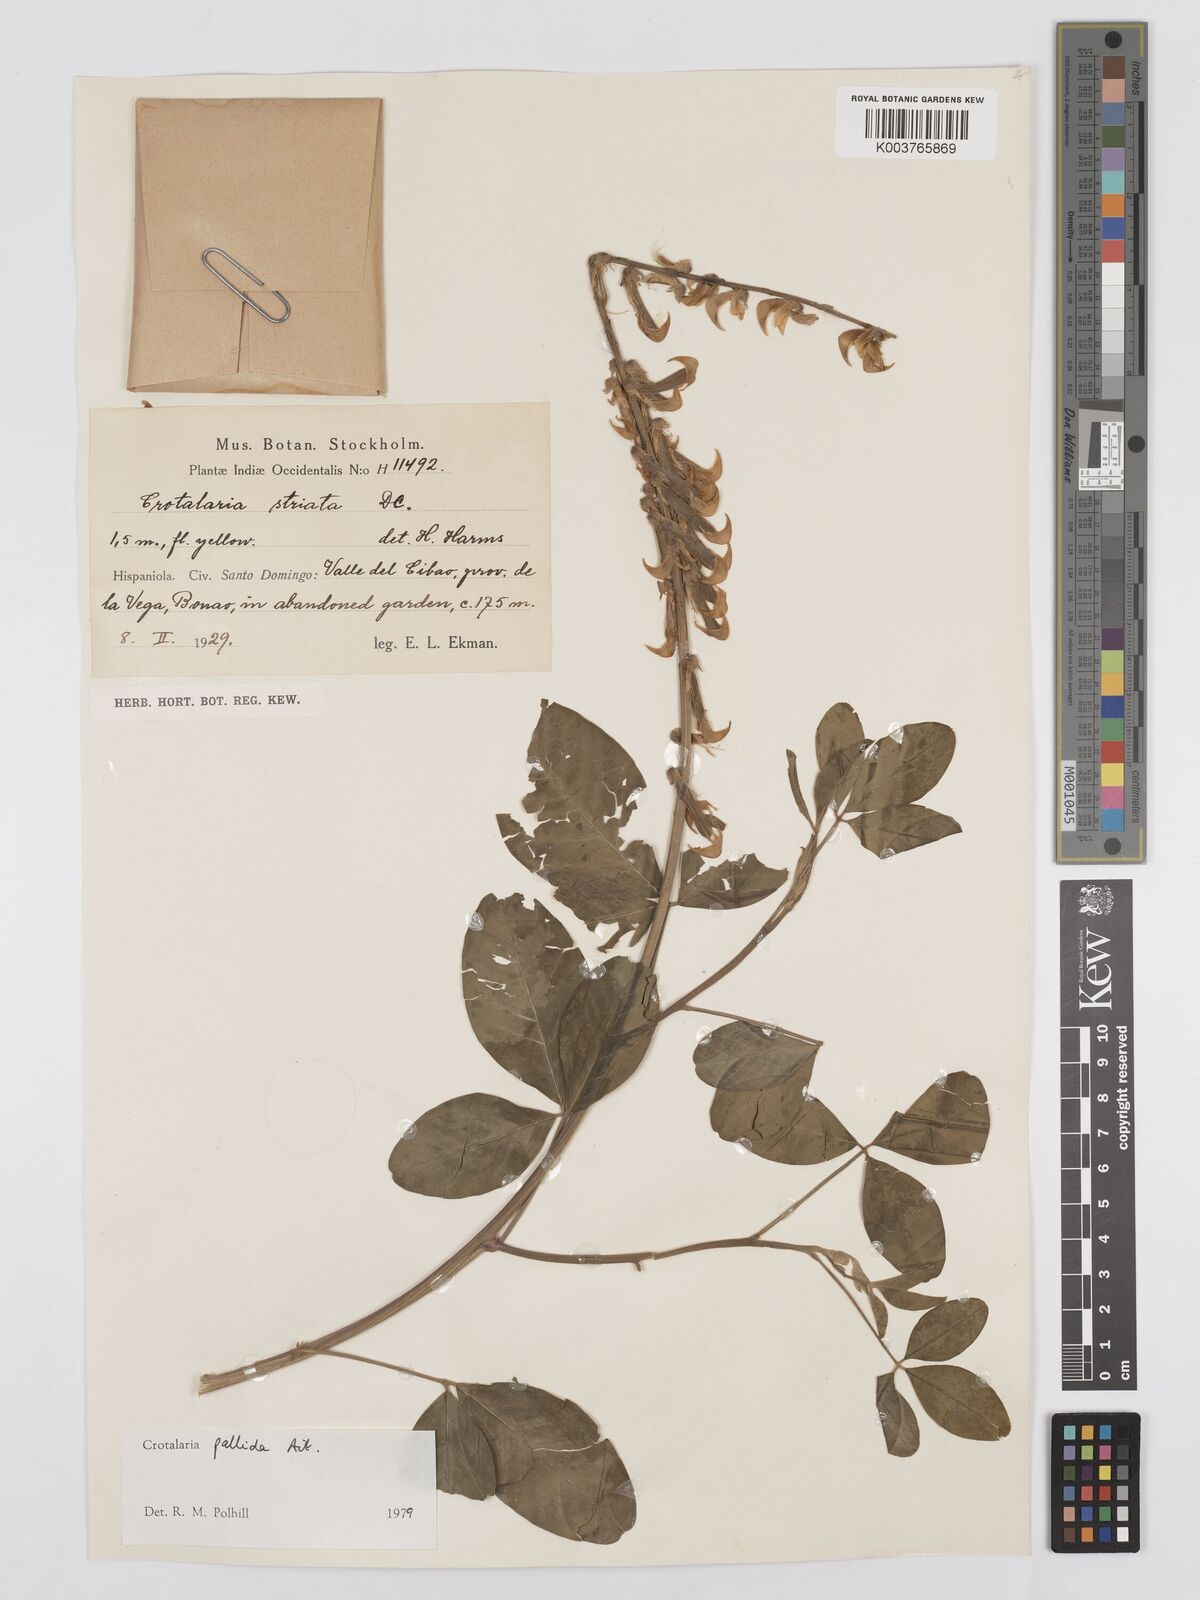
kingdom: Plantae
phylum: Tracheophyta
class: Magnoliopsida
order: Fabales
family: Fabaceae
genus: Crotalaria
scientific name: Crotalaria pallida
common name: Smooth rattlebox
